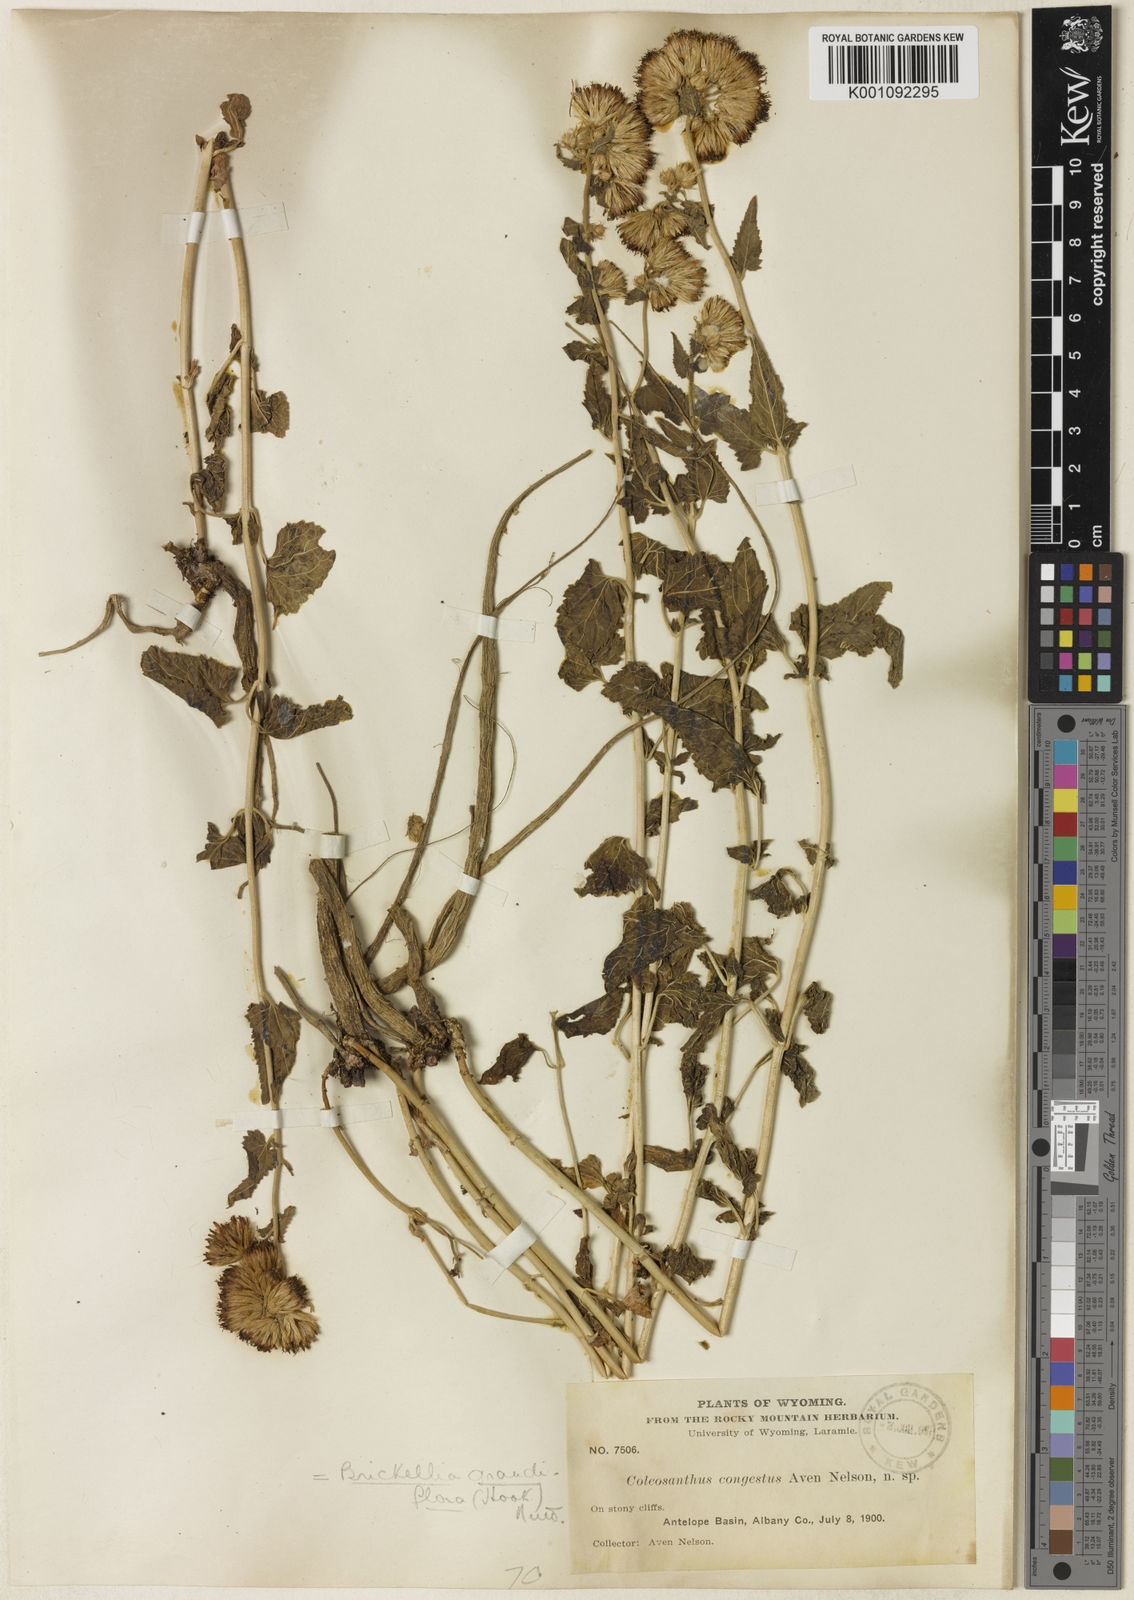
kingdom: Plantae
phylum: Tracheophyta
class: Magnoliopsida
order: Asterales
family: Asteraceae
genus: Brickellia
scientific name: Brickellia grandiflora
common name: Large-flowered brickellia
